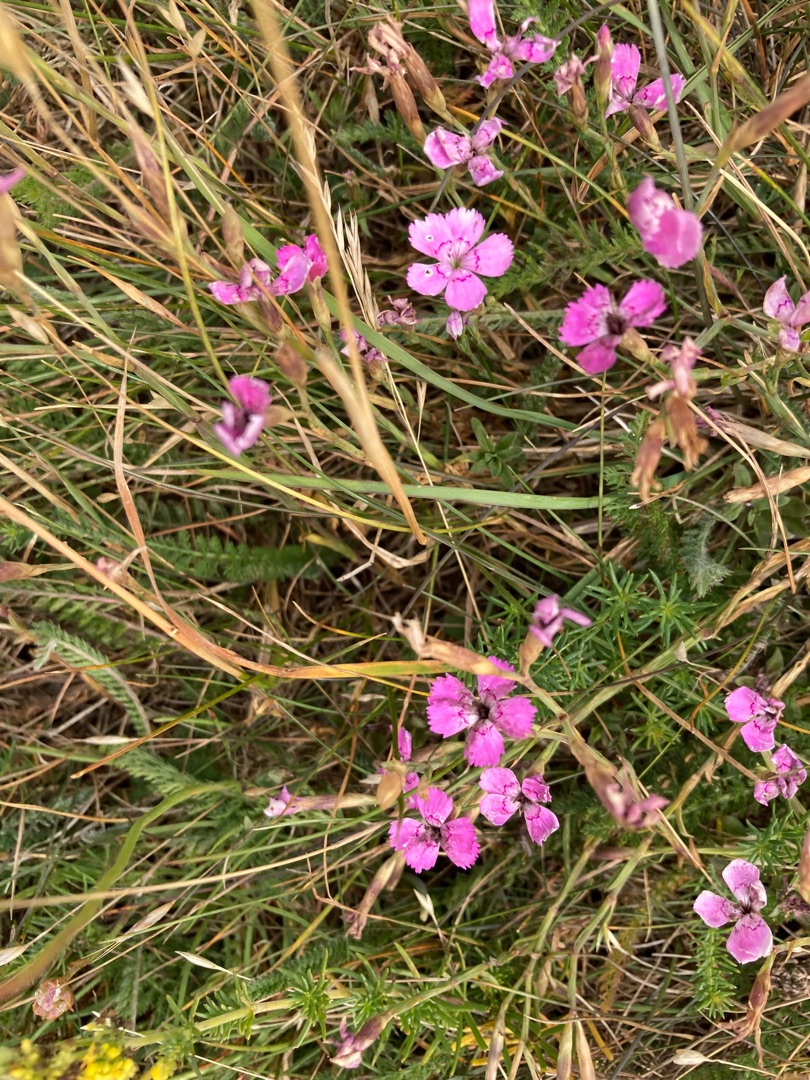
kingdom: Plantae
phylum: Tracheophyta
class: Magnoliopsida
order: Caryophyllales
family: Caryophyllaceae
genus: Dianthus
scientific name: Dianthus deltoides
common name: Bakke-nellike
